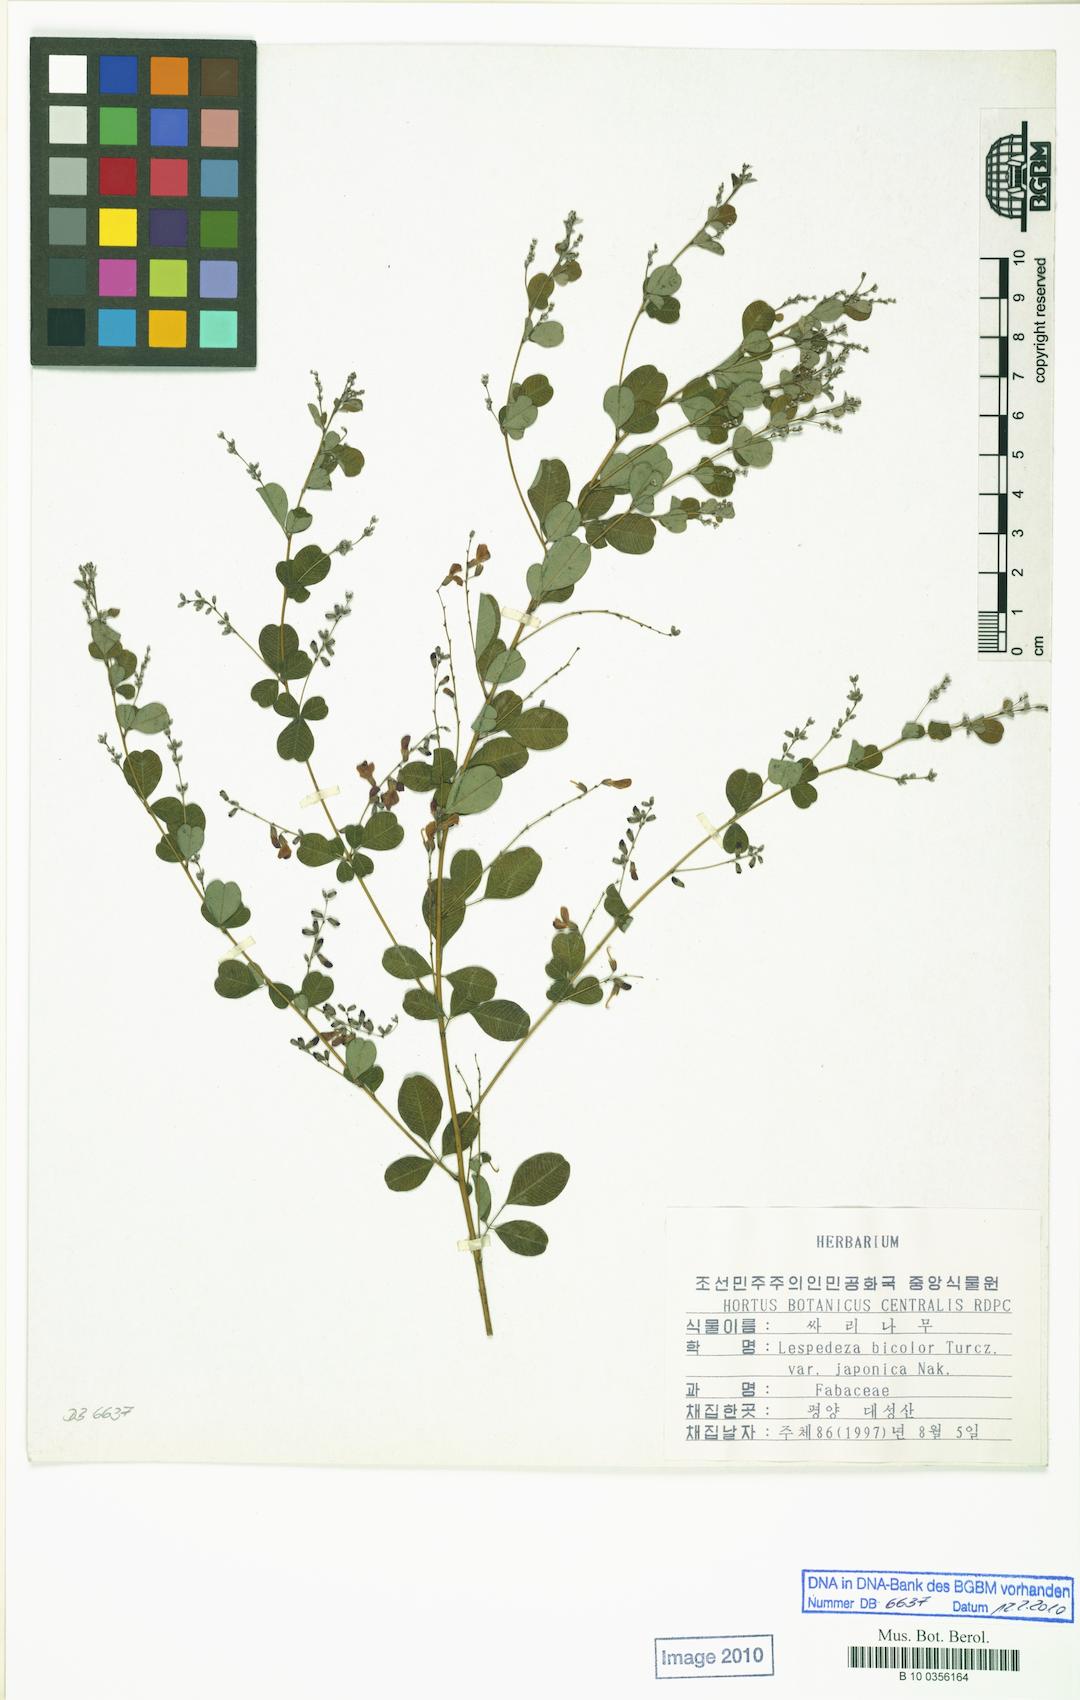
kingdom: Plantae
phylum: Tracheophyta
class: Magnoliopsida
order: Fabales
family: Fabaceae
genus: Lespedeza
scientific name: Lespedeza bicolor
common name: Shrub lespedeza
